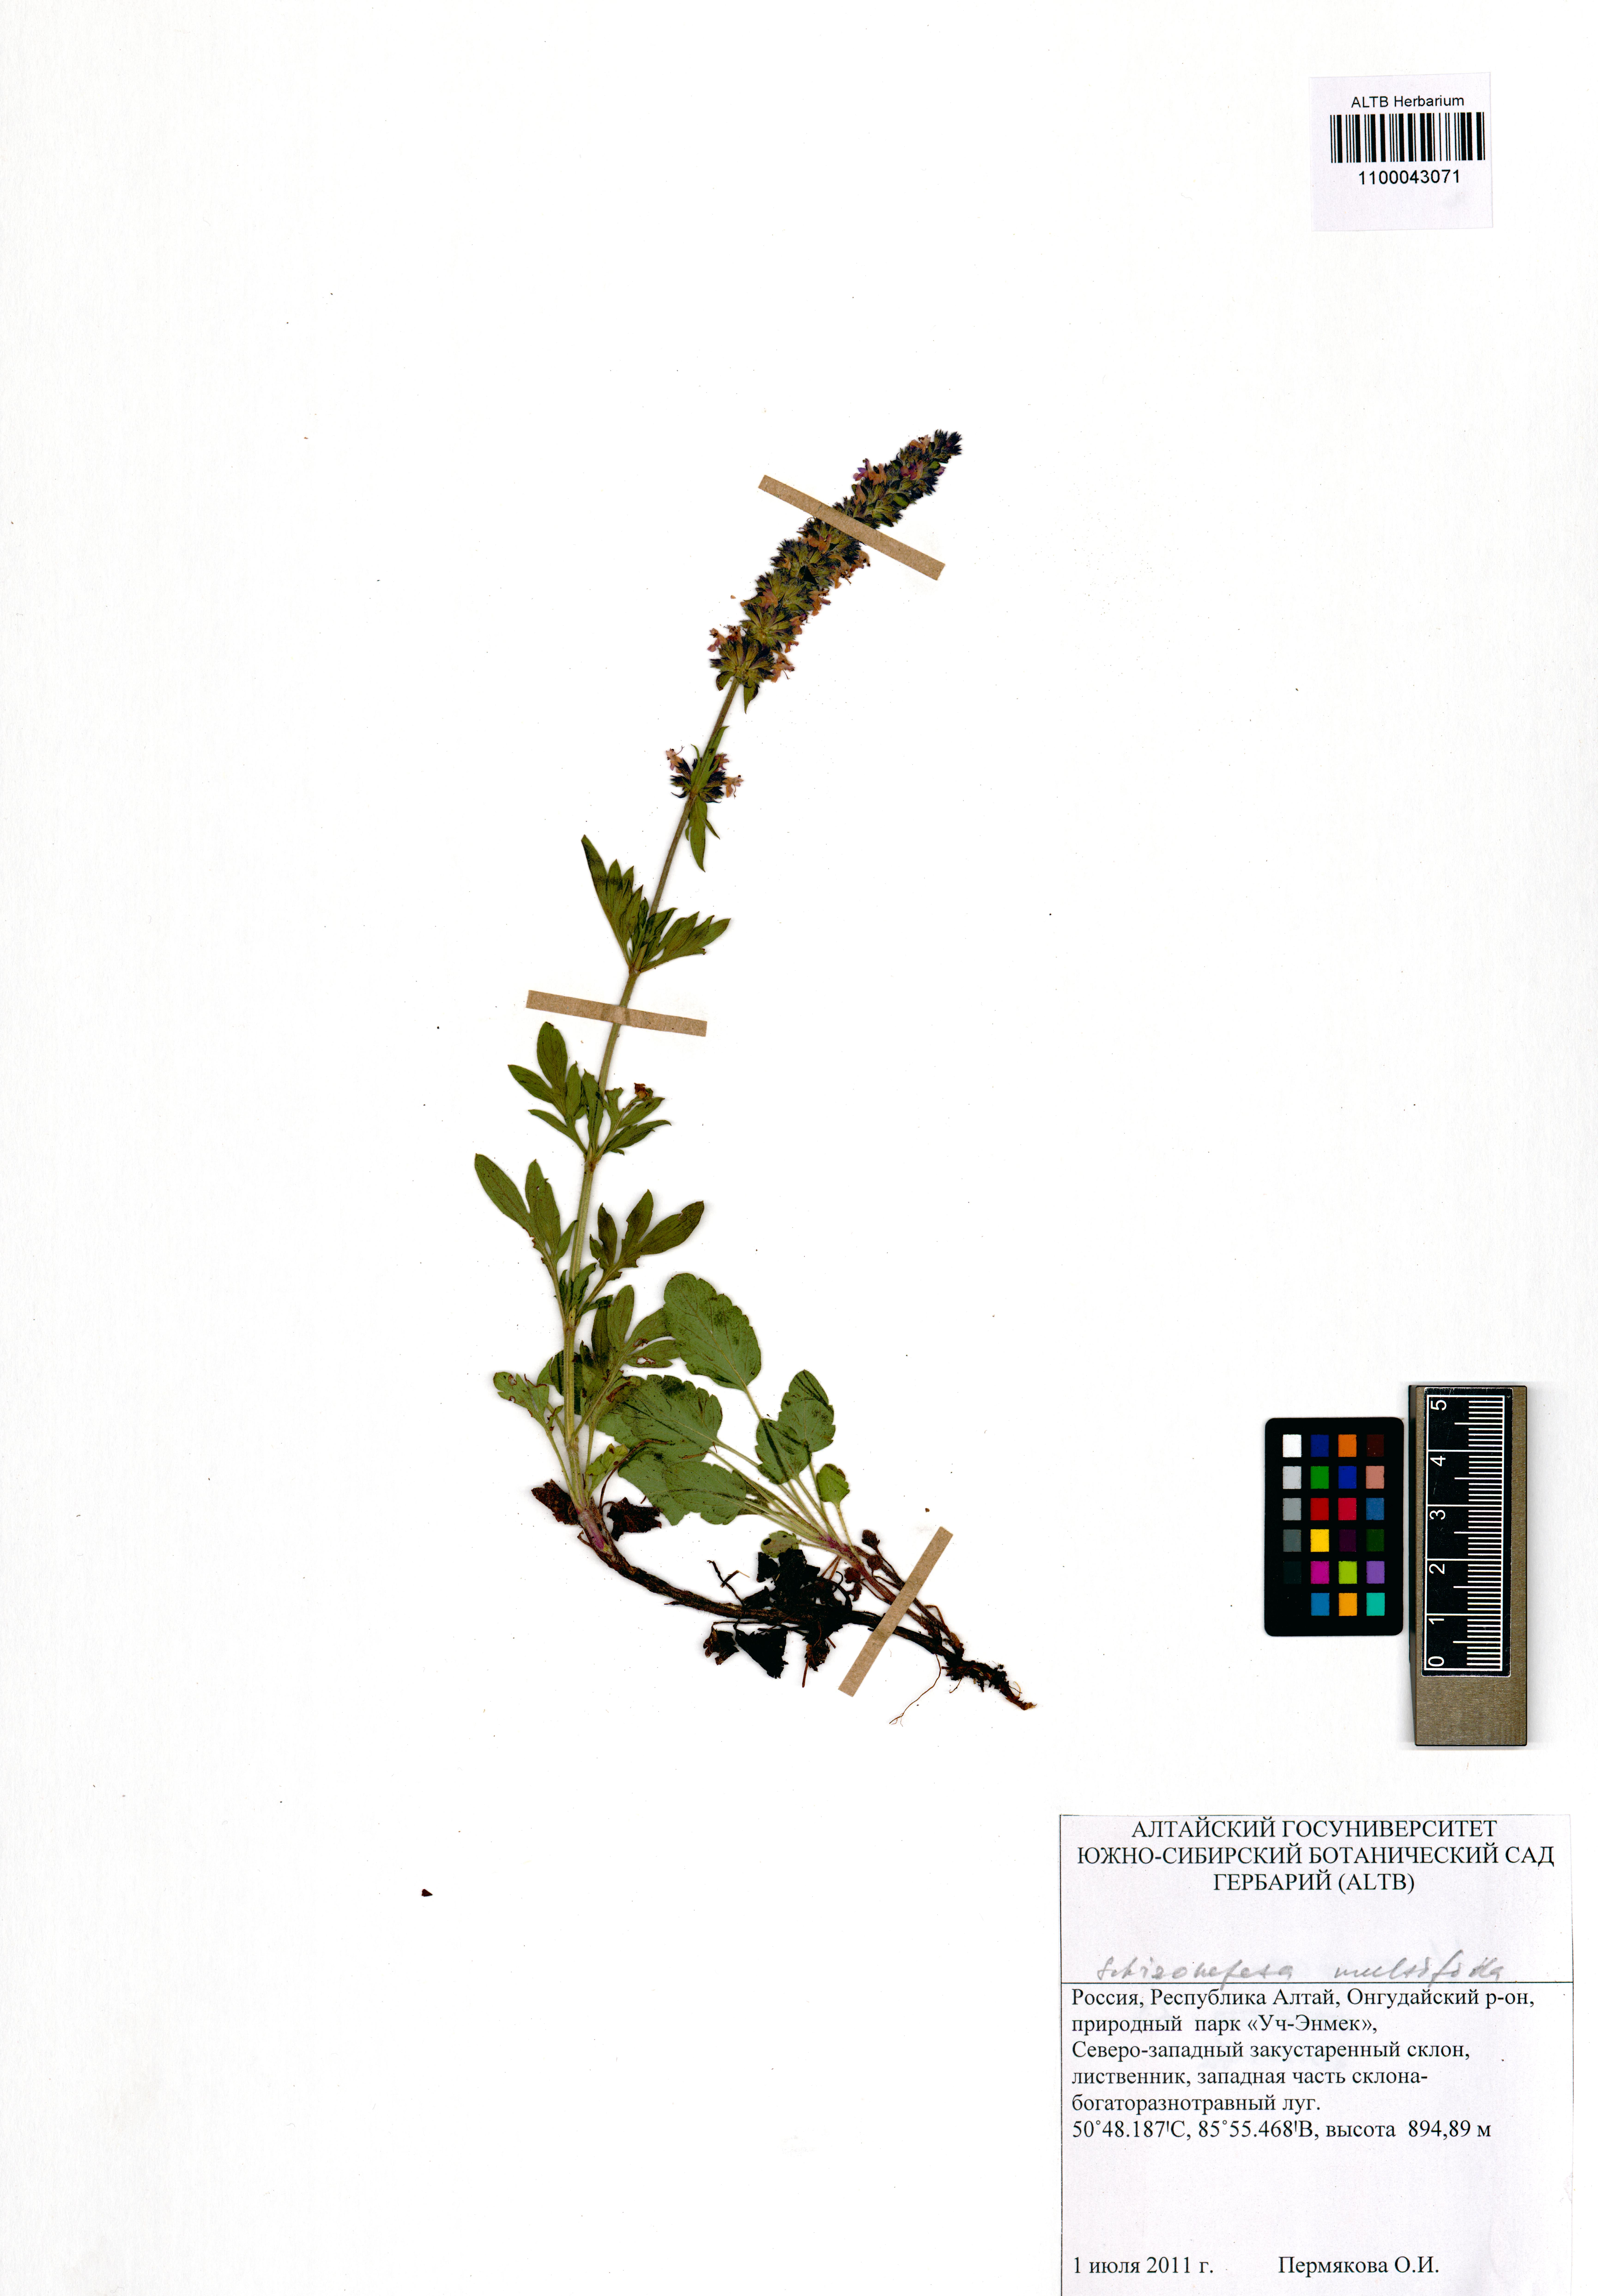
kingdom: Plantae
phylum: Tracheophyta
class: Magnoliopsida
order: Lamiales
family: Lamiaceae
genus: Nepeta
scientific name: Nepeta multifida
